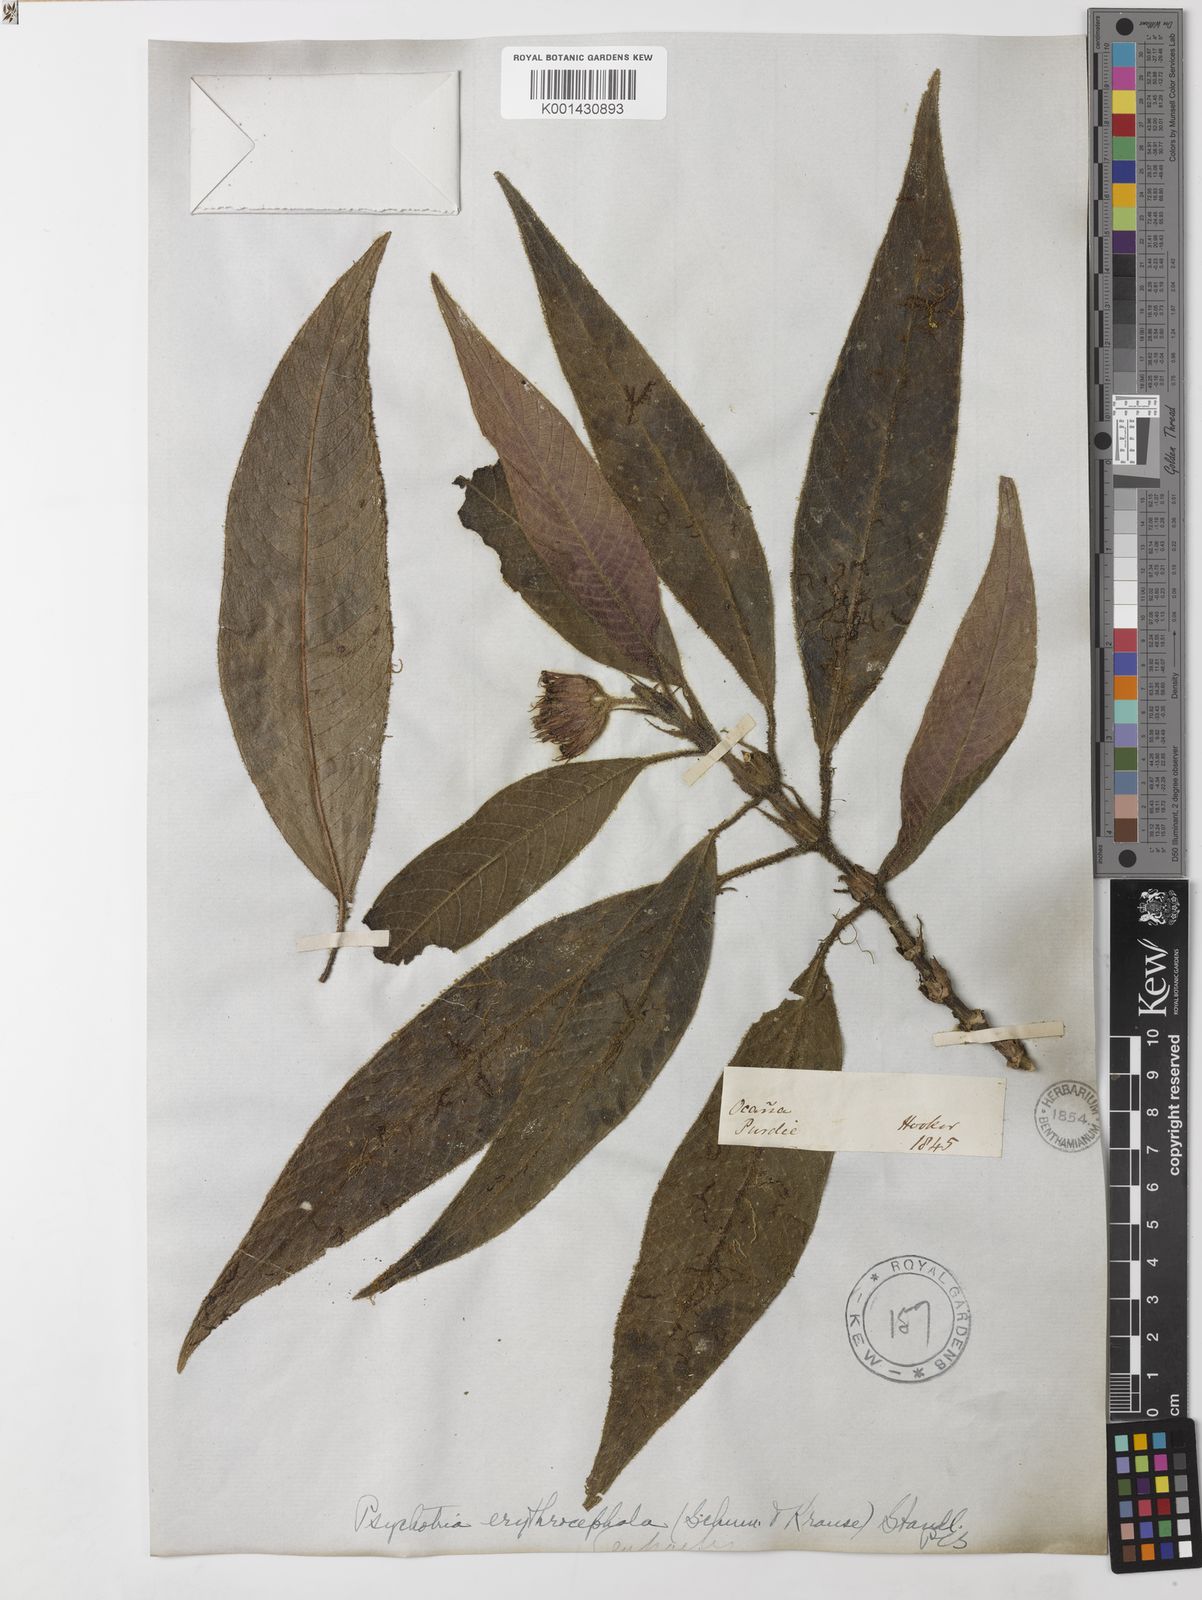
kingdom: Plantae
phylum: Tracheophyta
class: Magnoliopsida
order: Gentianales
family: Rubiaceae
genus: Palicourea
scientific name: Palicourea erythrocephala
